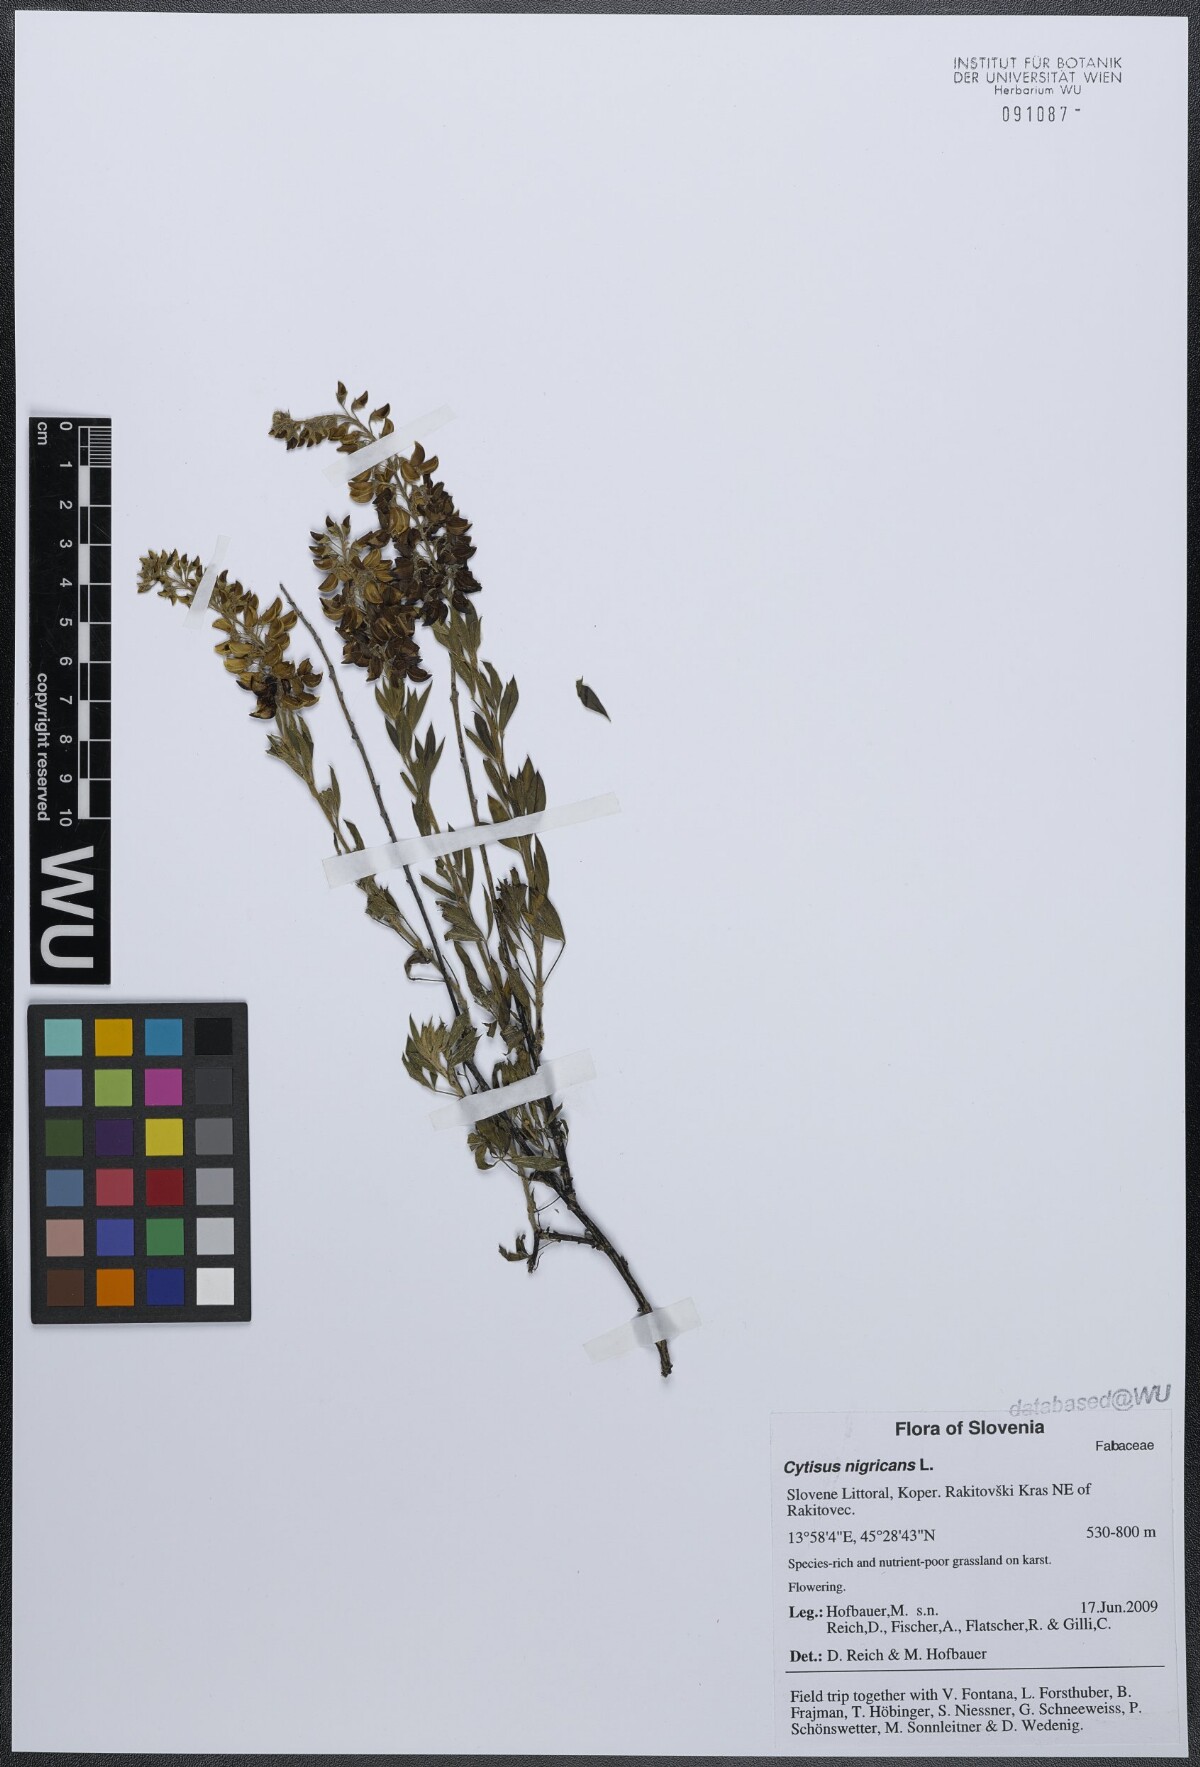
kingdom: Plantae
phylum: Tracheophyta
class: Magnoliopsida
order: Fabales
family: Fabaceae
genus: Cytisus
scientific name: Cytisus nigricans
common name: Black broom
